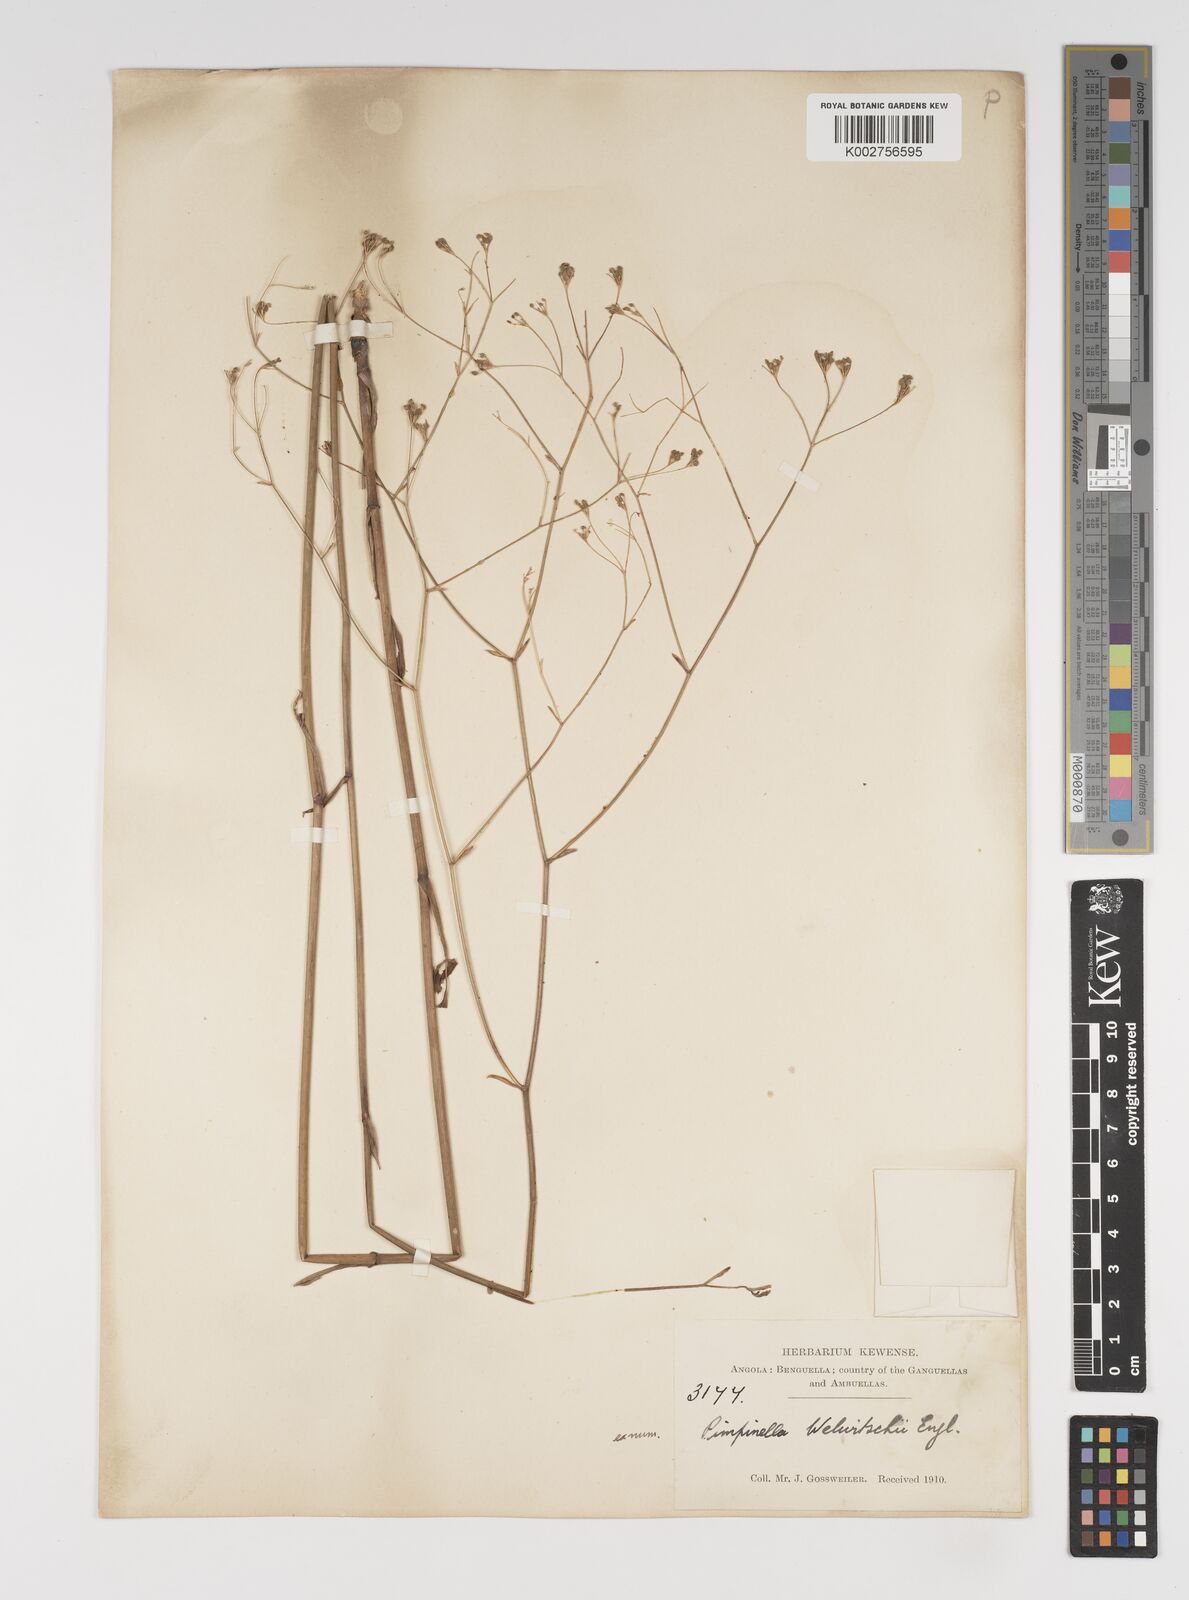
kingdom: Plantae
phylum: Tracheophyta
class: Magnoliopsida
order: Apiales
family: Apiaceae
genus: Pimpinella
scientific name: Pimpinella huillensis
